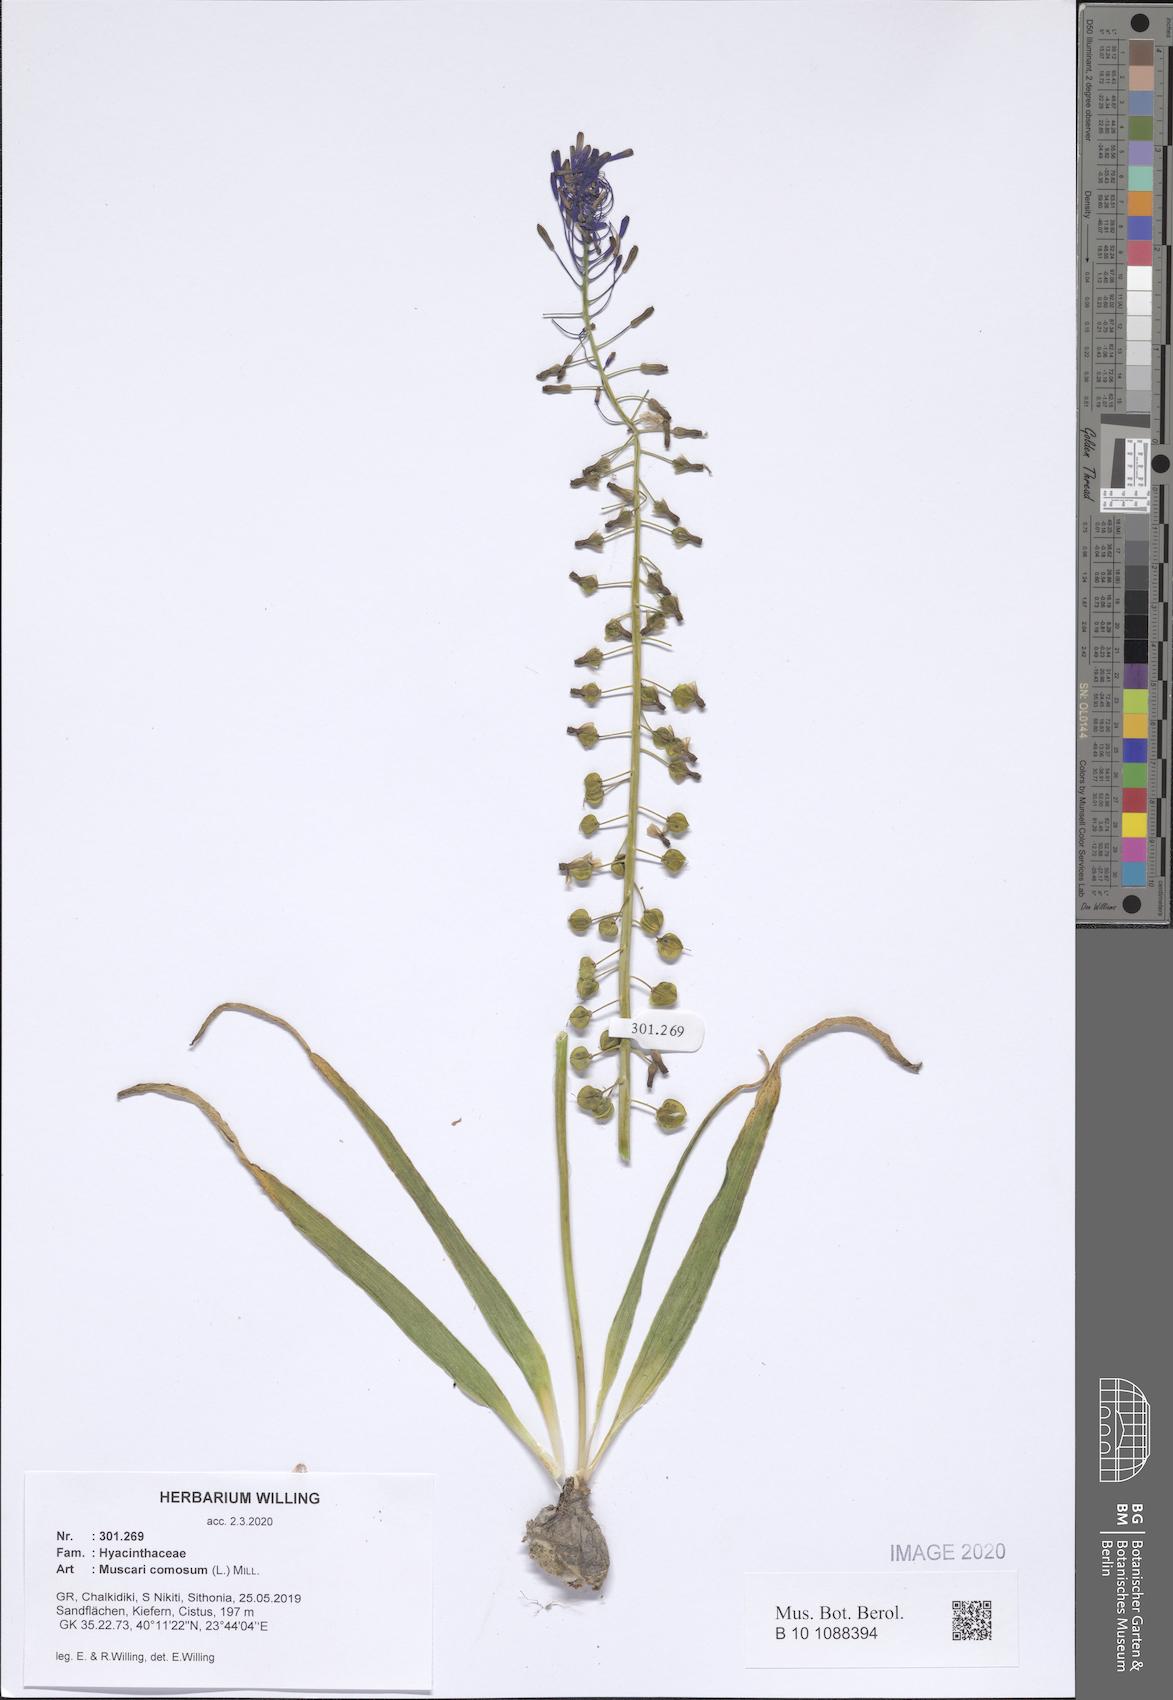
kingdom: Plantae
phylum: Tracheophyta
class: Liliopsida
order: Asparagales
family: Asparagaceae
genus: Muscari
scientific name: Muscari comosum
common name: Tassel hyacinth
